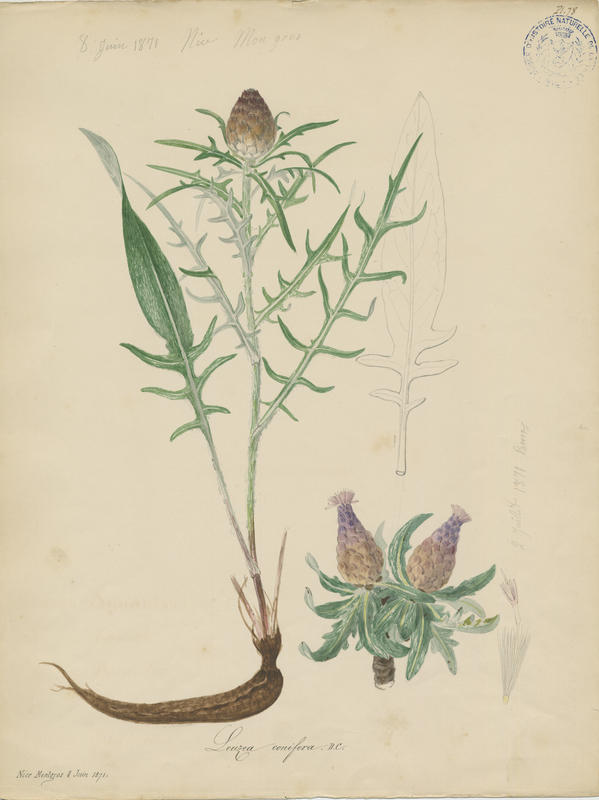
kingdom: Plantae
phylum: Tracheophyta
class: Magnoliopsida
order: Asterales
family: Asteraceae
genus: Leuzea
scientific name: Leuzea conifera
